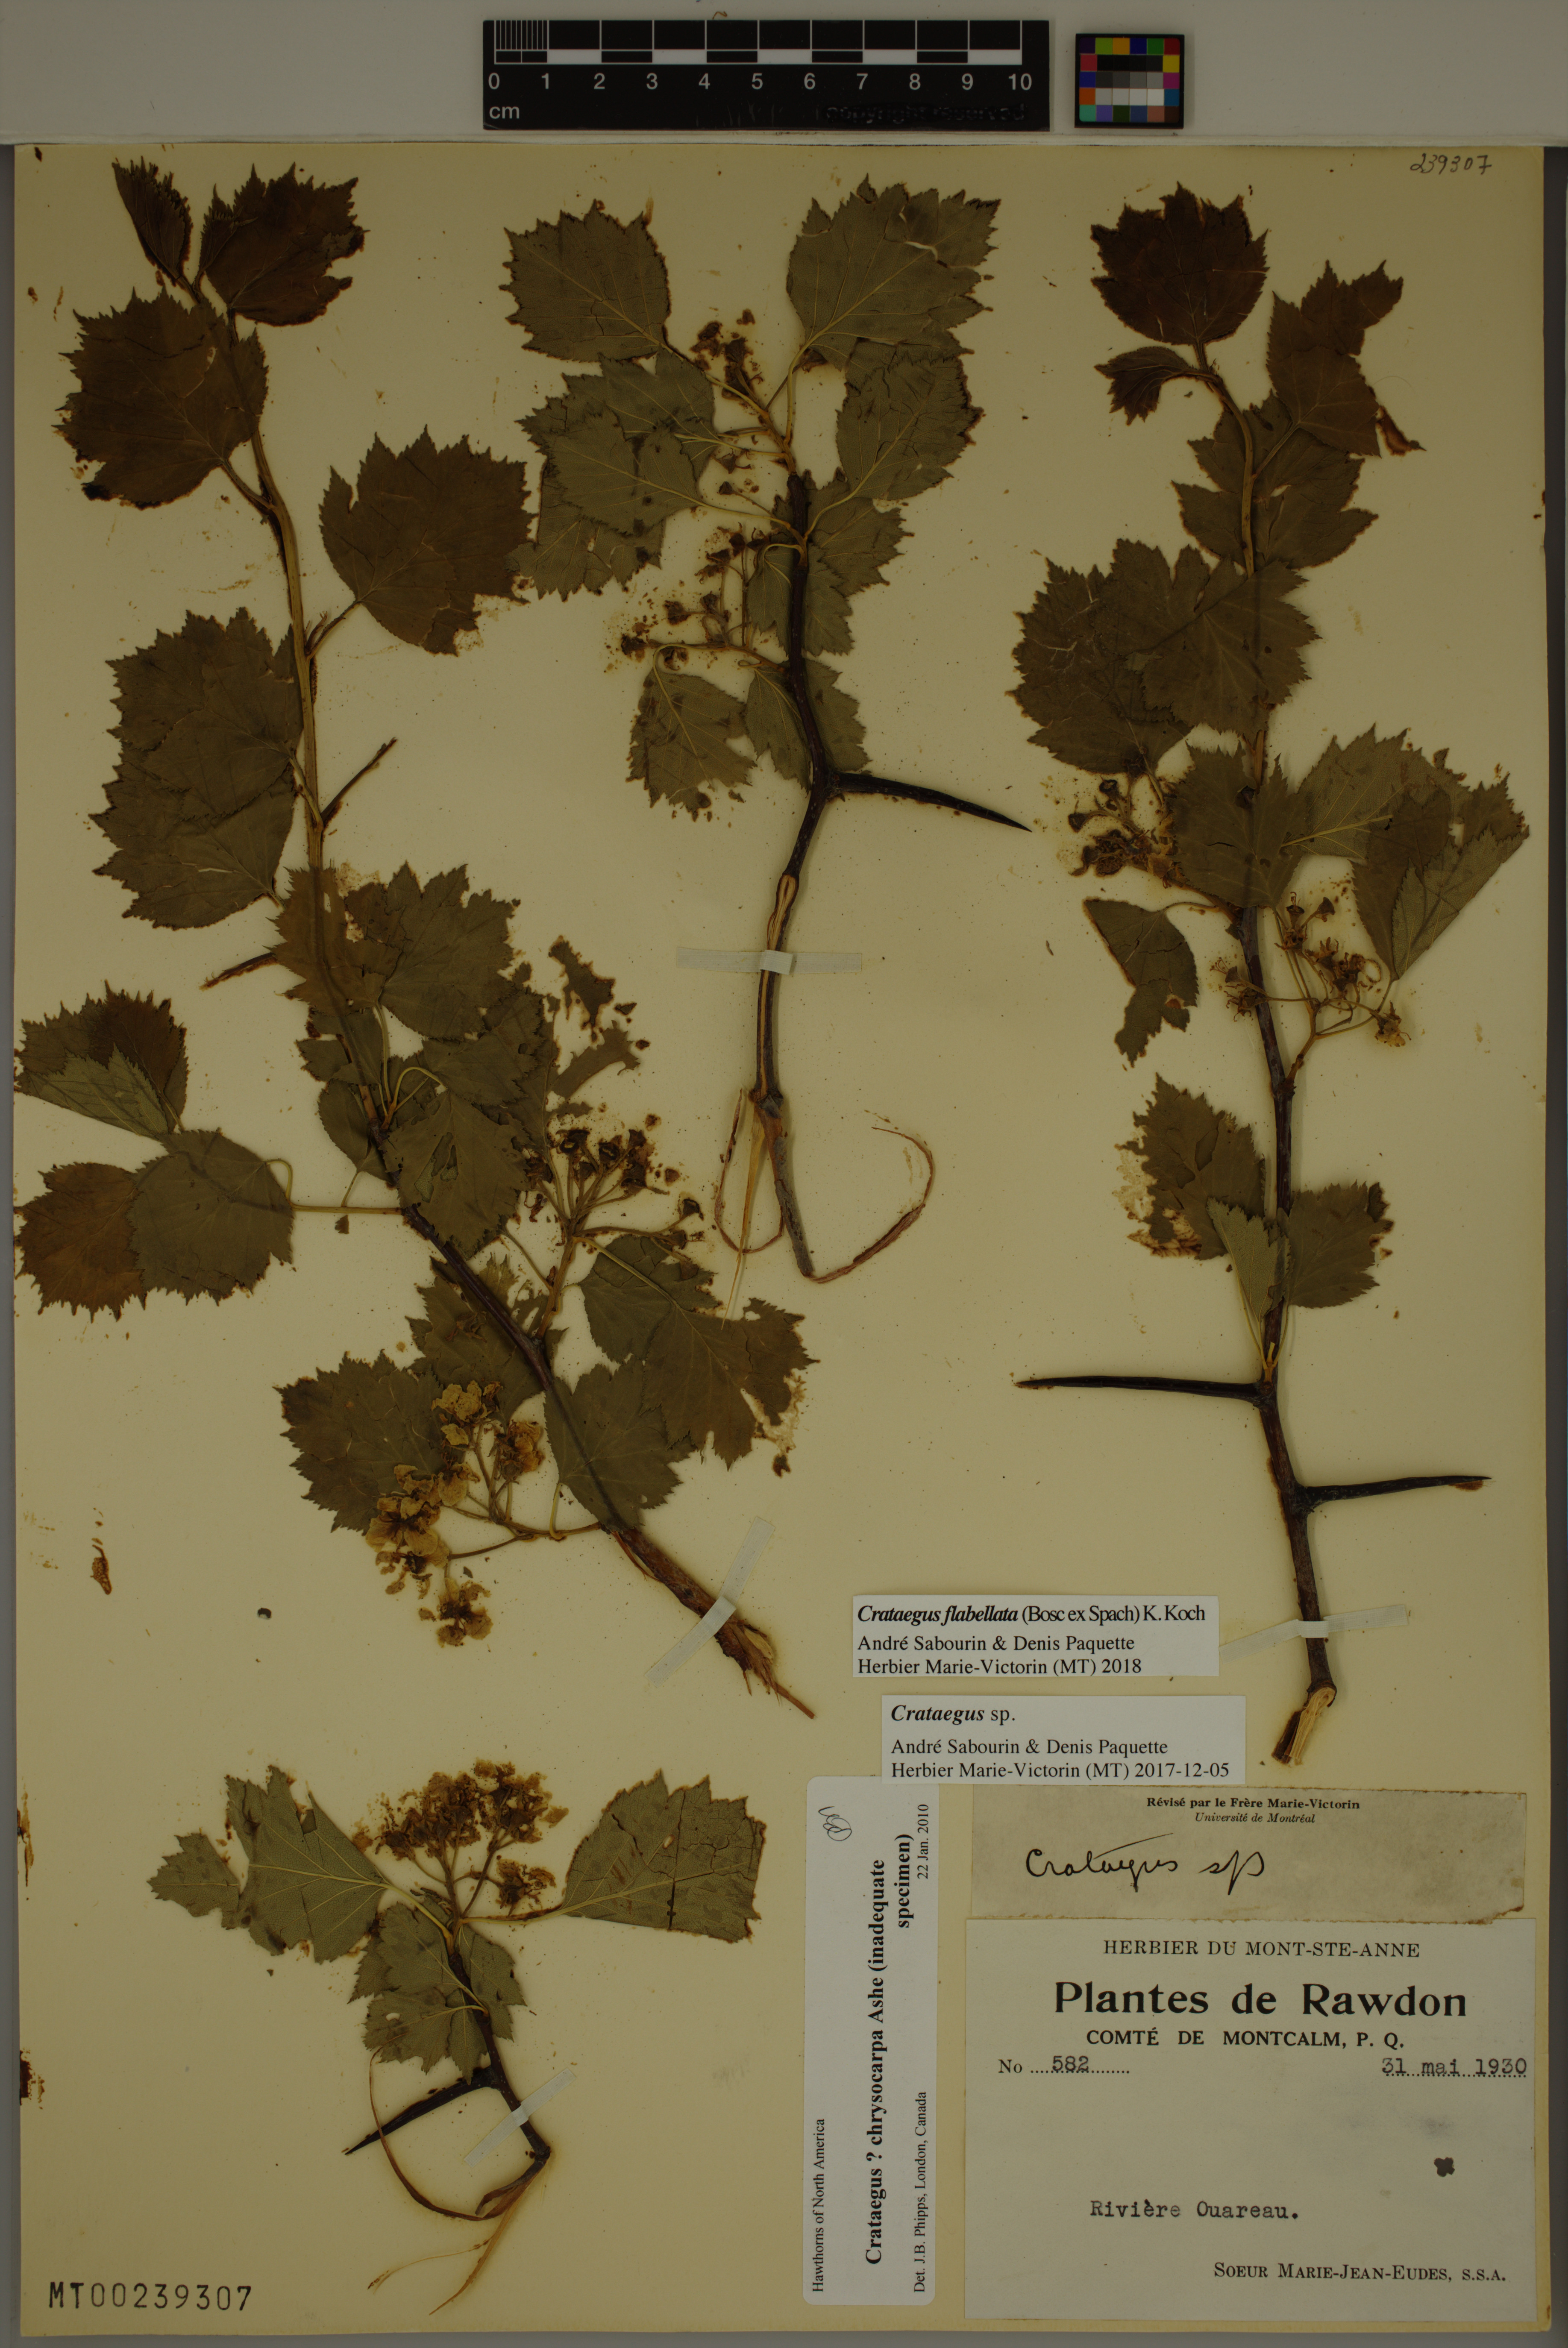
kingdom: Plantae
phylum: Tracheophyta
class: Magnoliopsida
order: Rosales
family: Rosaceae
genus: Crataegus
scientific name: Crataegus flabellata
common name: Bosc's hawthorn
